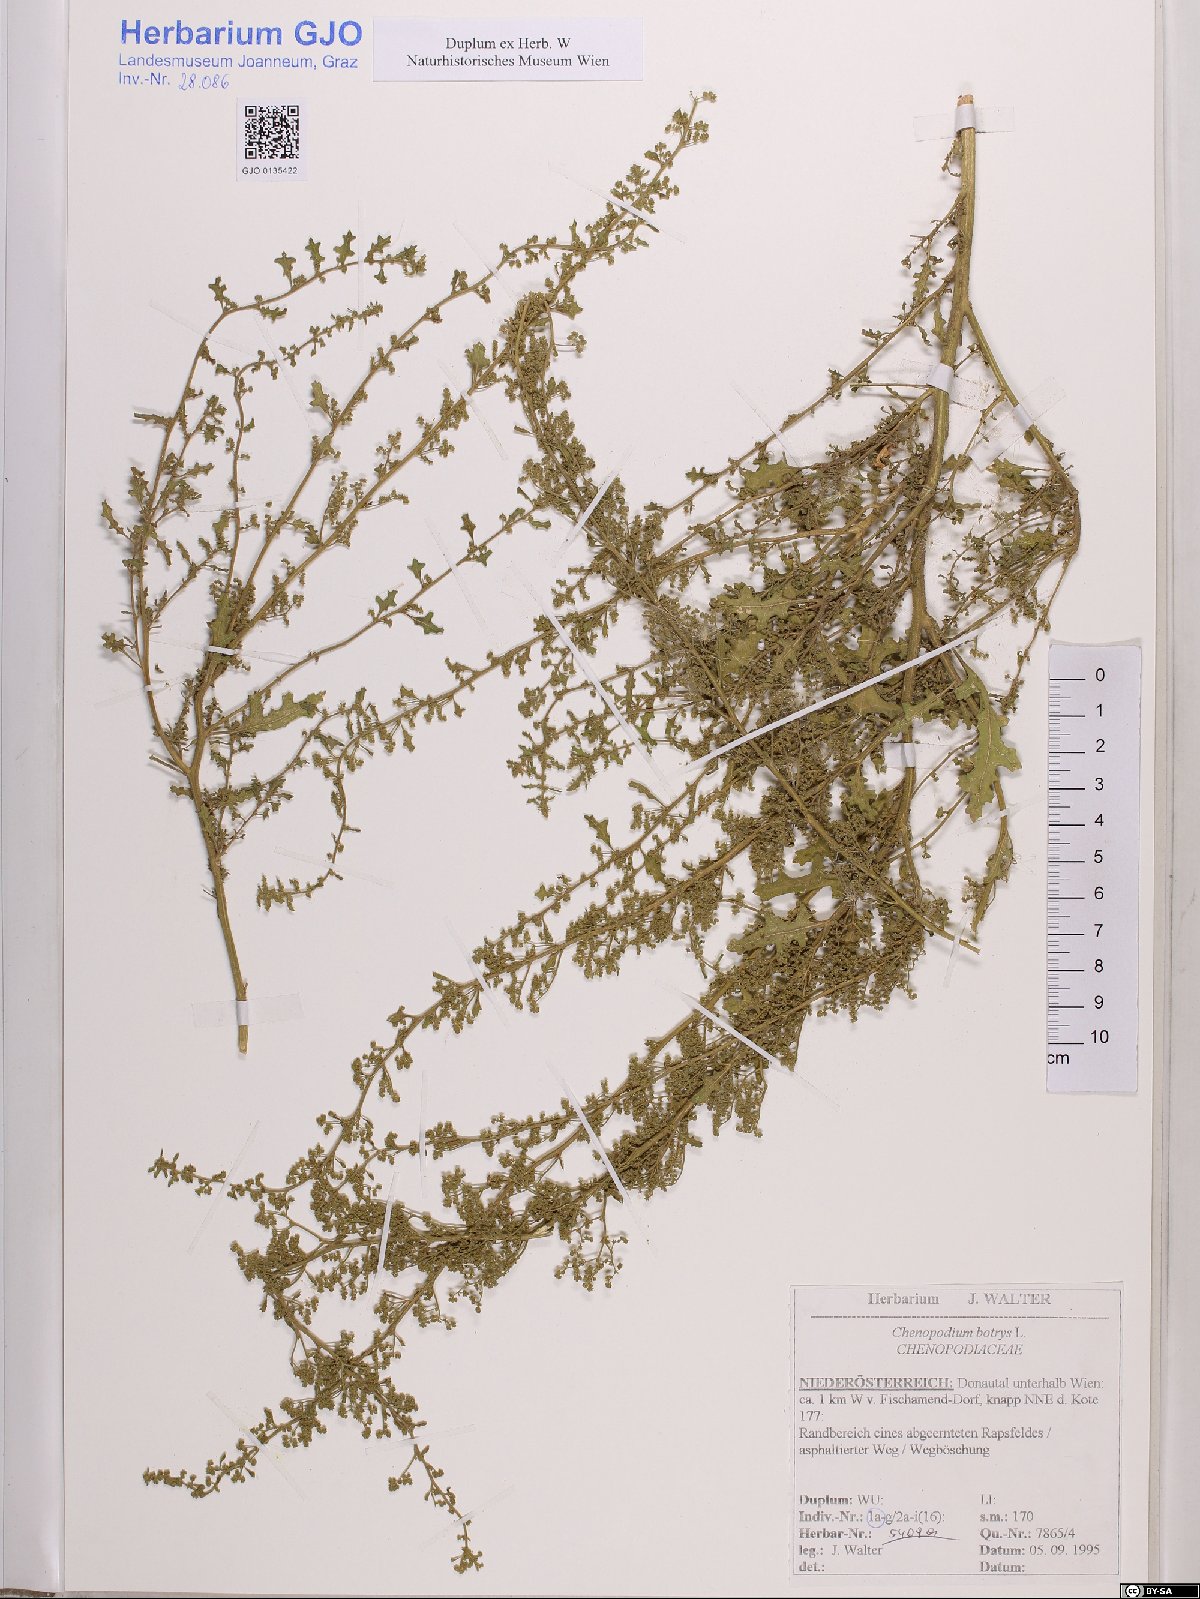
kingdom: Plantae
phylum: Tracheophyta
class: Magnoliopsida
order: Caryophyllales
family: Amaranthaceae
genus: Dysphania
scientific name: Dysphania botrys
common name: Feather-geranium
